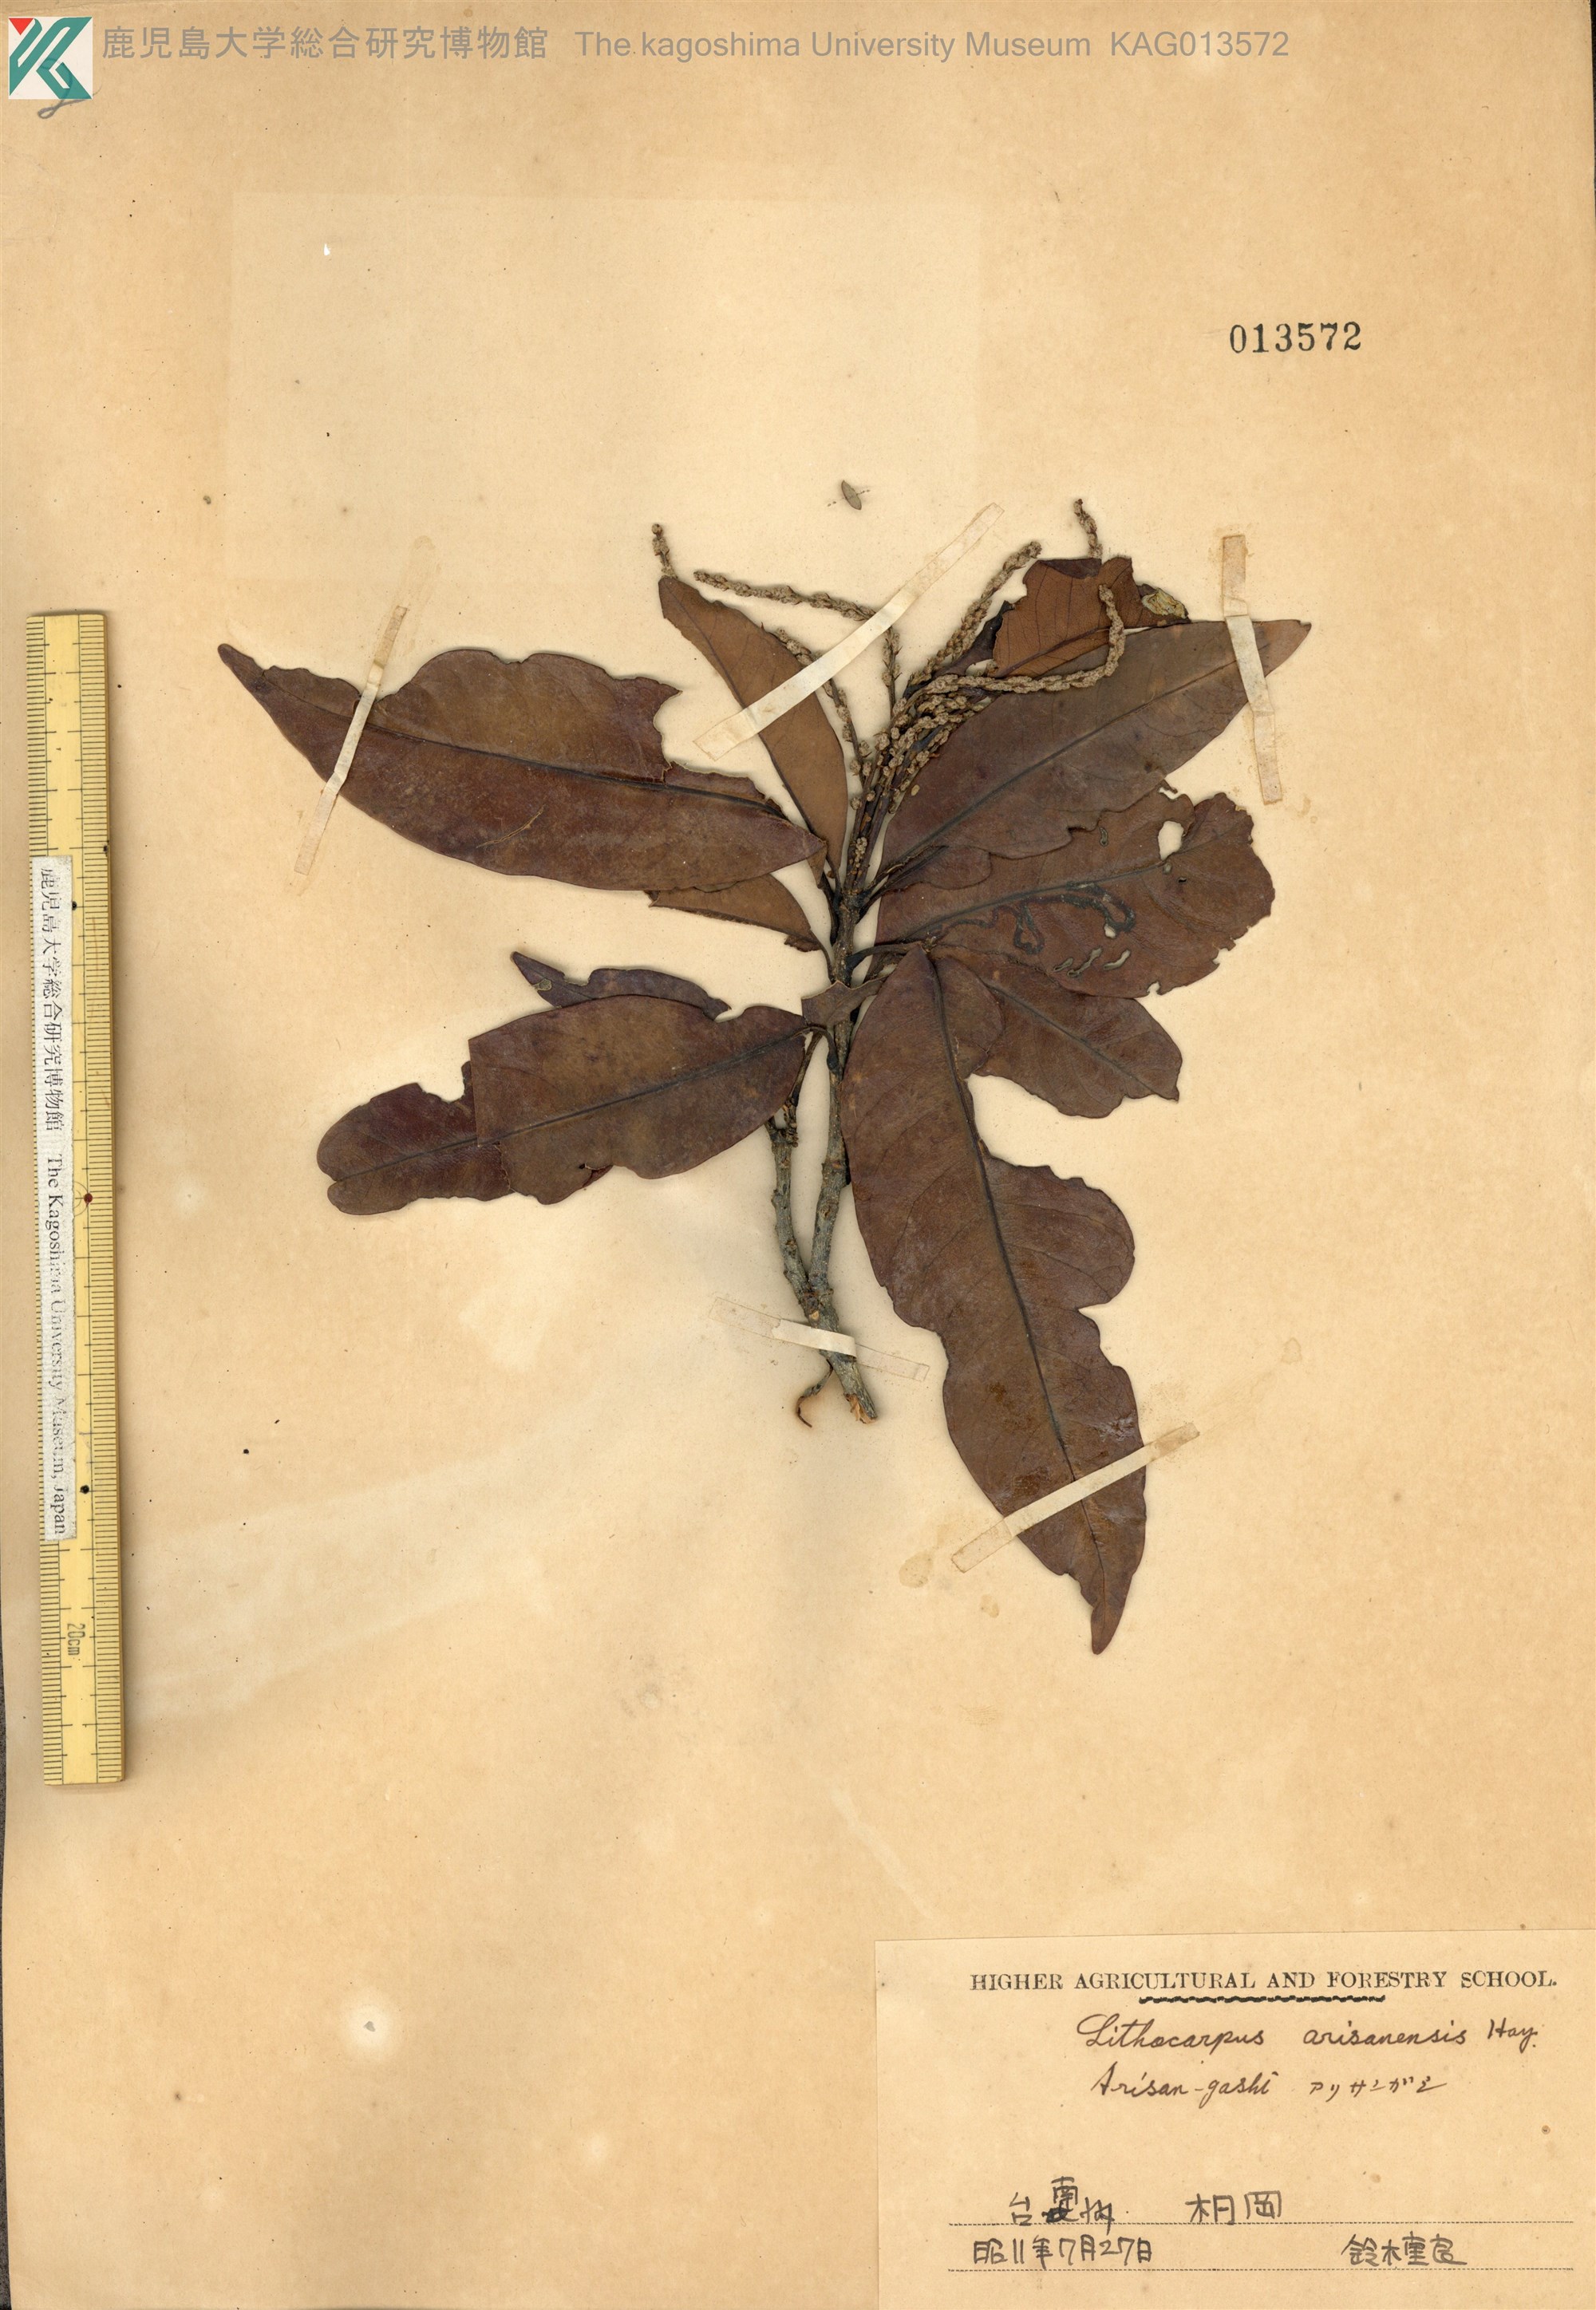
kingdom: Plantae
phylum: Tracheophyta
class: Magnoliopsida
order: Fagales
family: Fagaceae
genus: Lithocarpus
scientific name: Lithocarpus hancei
